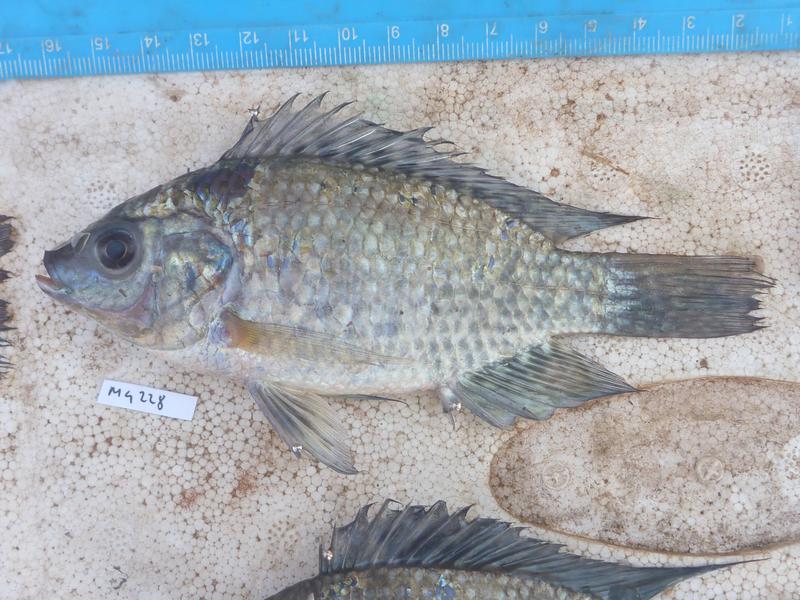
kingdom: Animalia
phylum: Chordata
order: Perciformes
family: Cichlidae
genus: Oreochromis
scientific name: Oreochromis leucostictus
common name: Blue spotted tilapia
